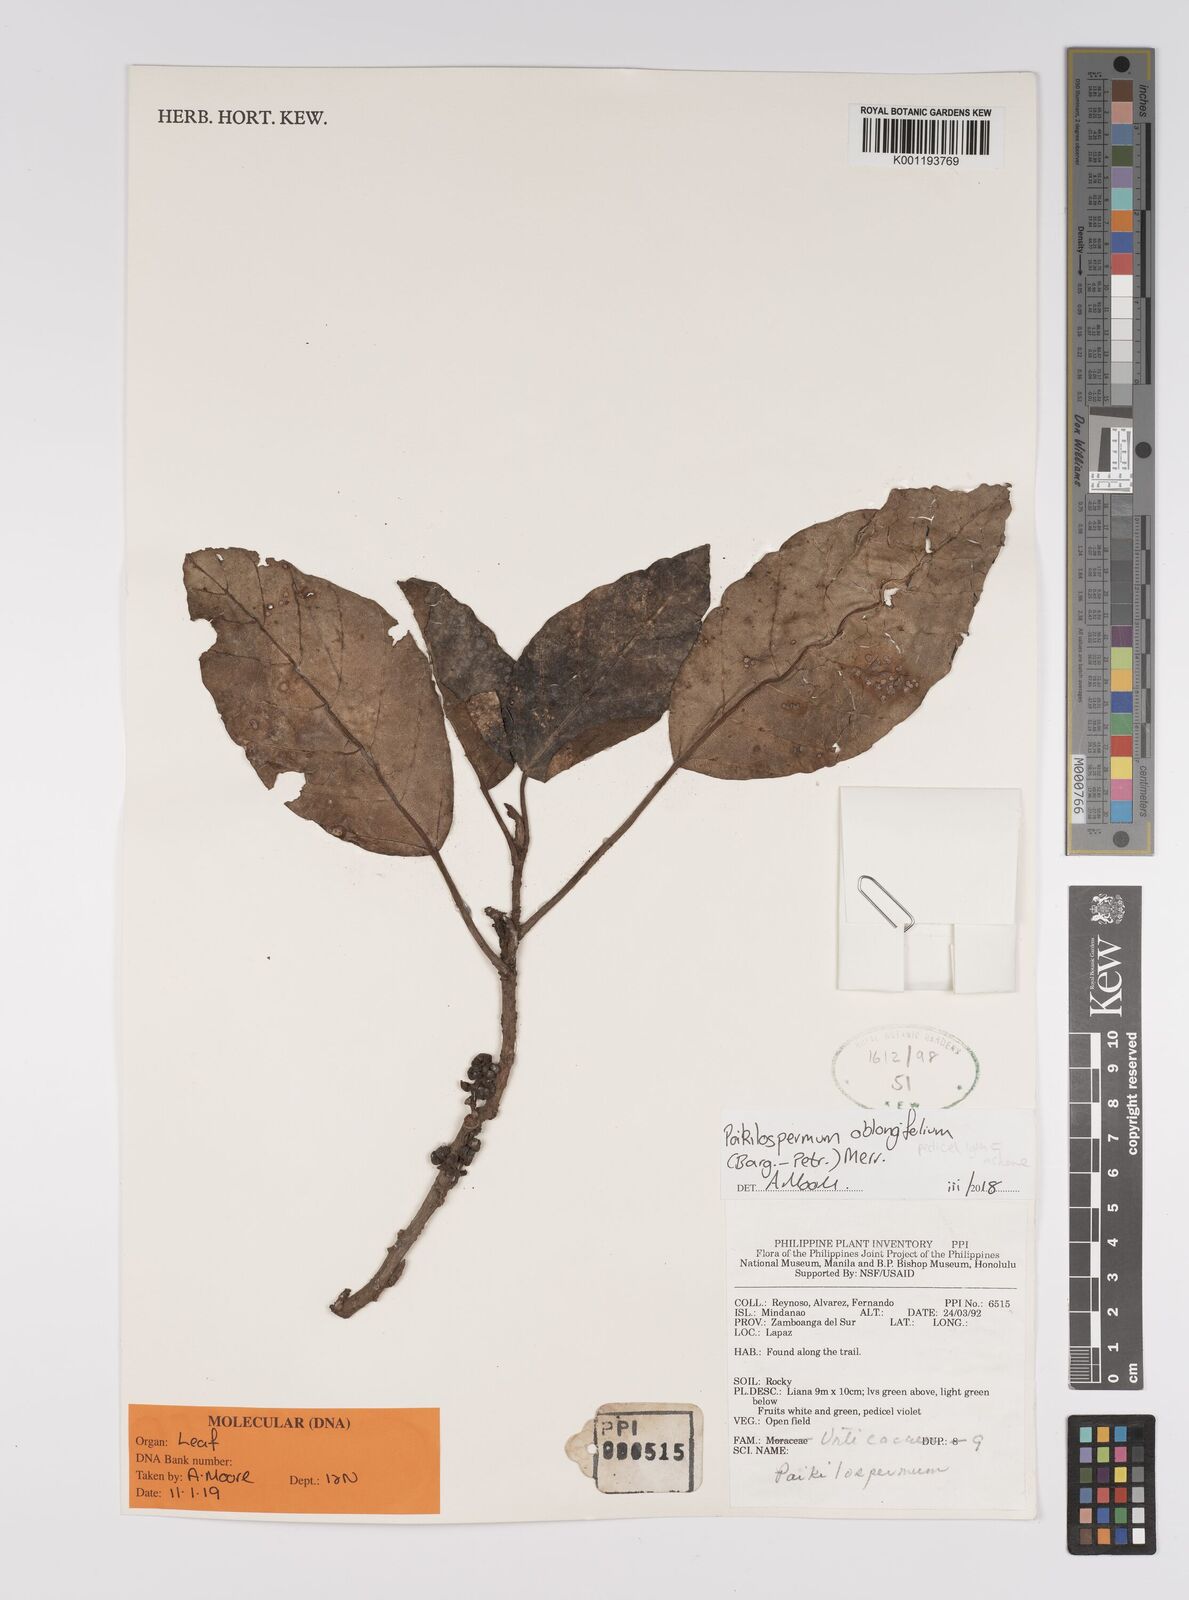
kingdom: Plantae
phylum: Tracheophyta
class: Magnoliopsida
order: Rosales
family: Urticaceae
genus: Poikilospermum
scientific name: Poikilospermum oblongifolium
